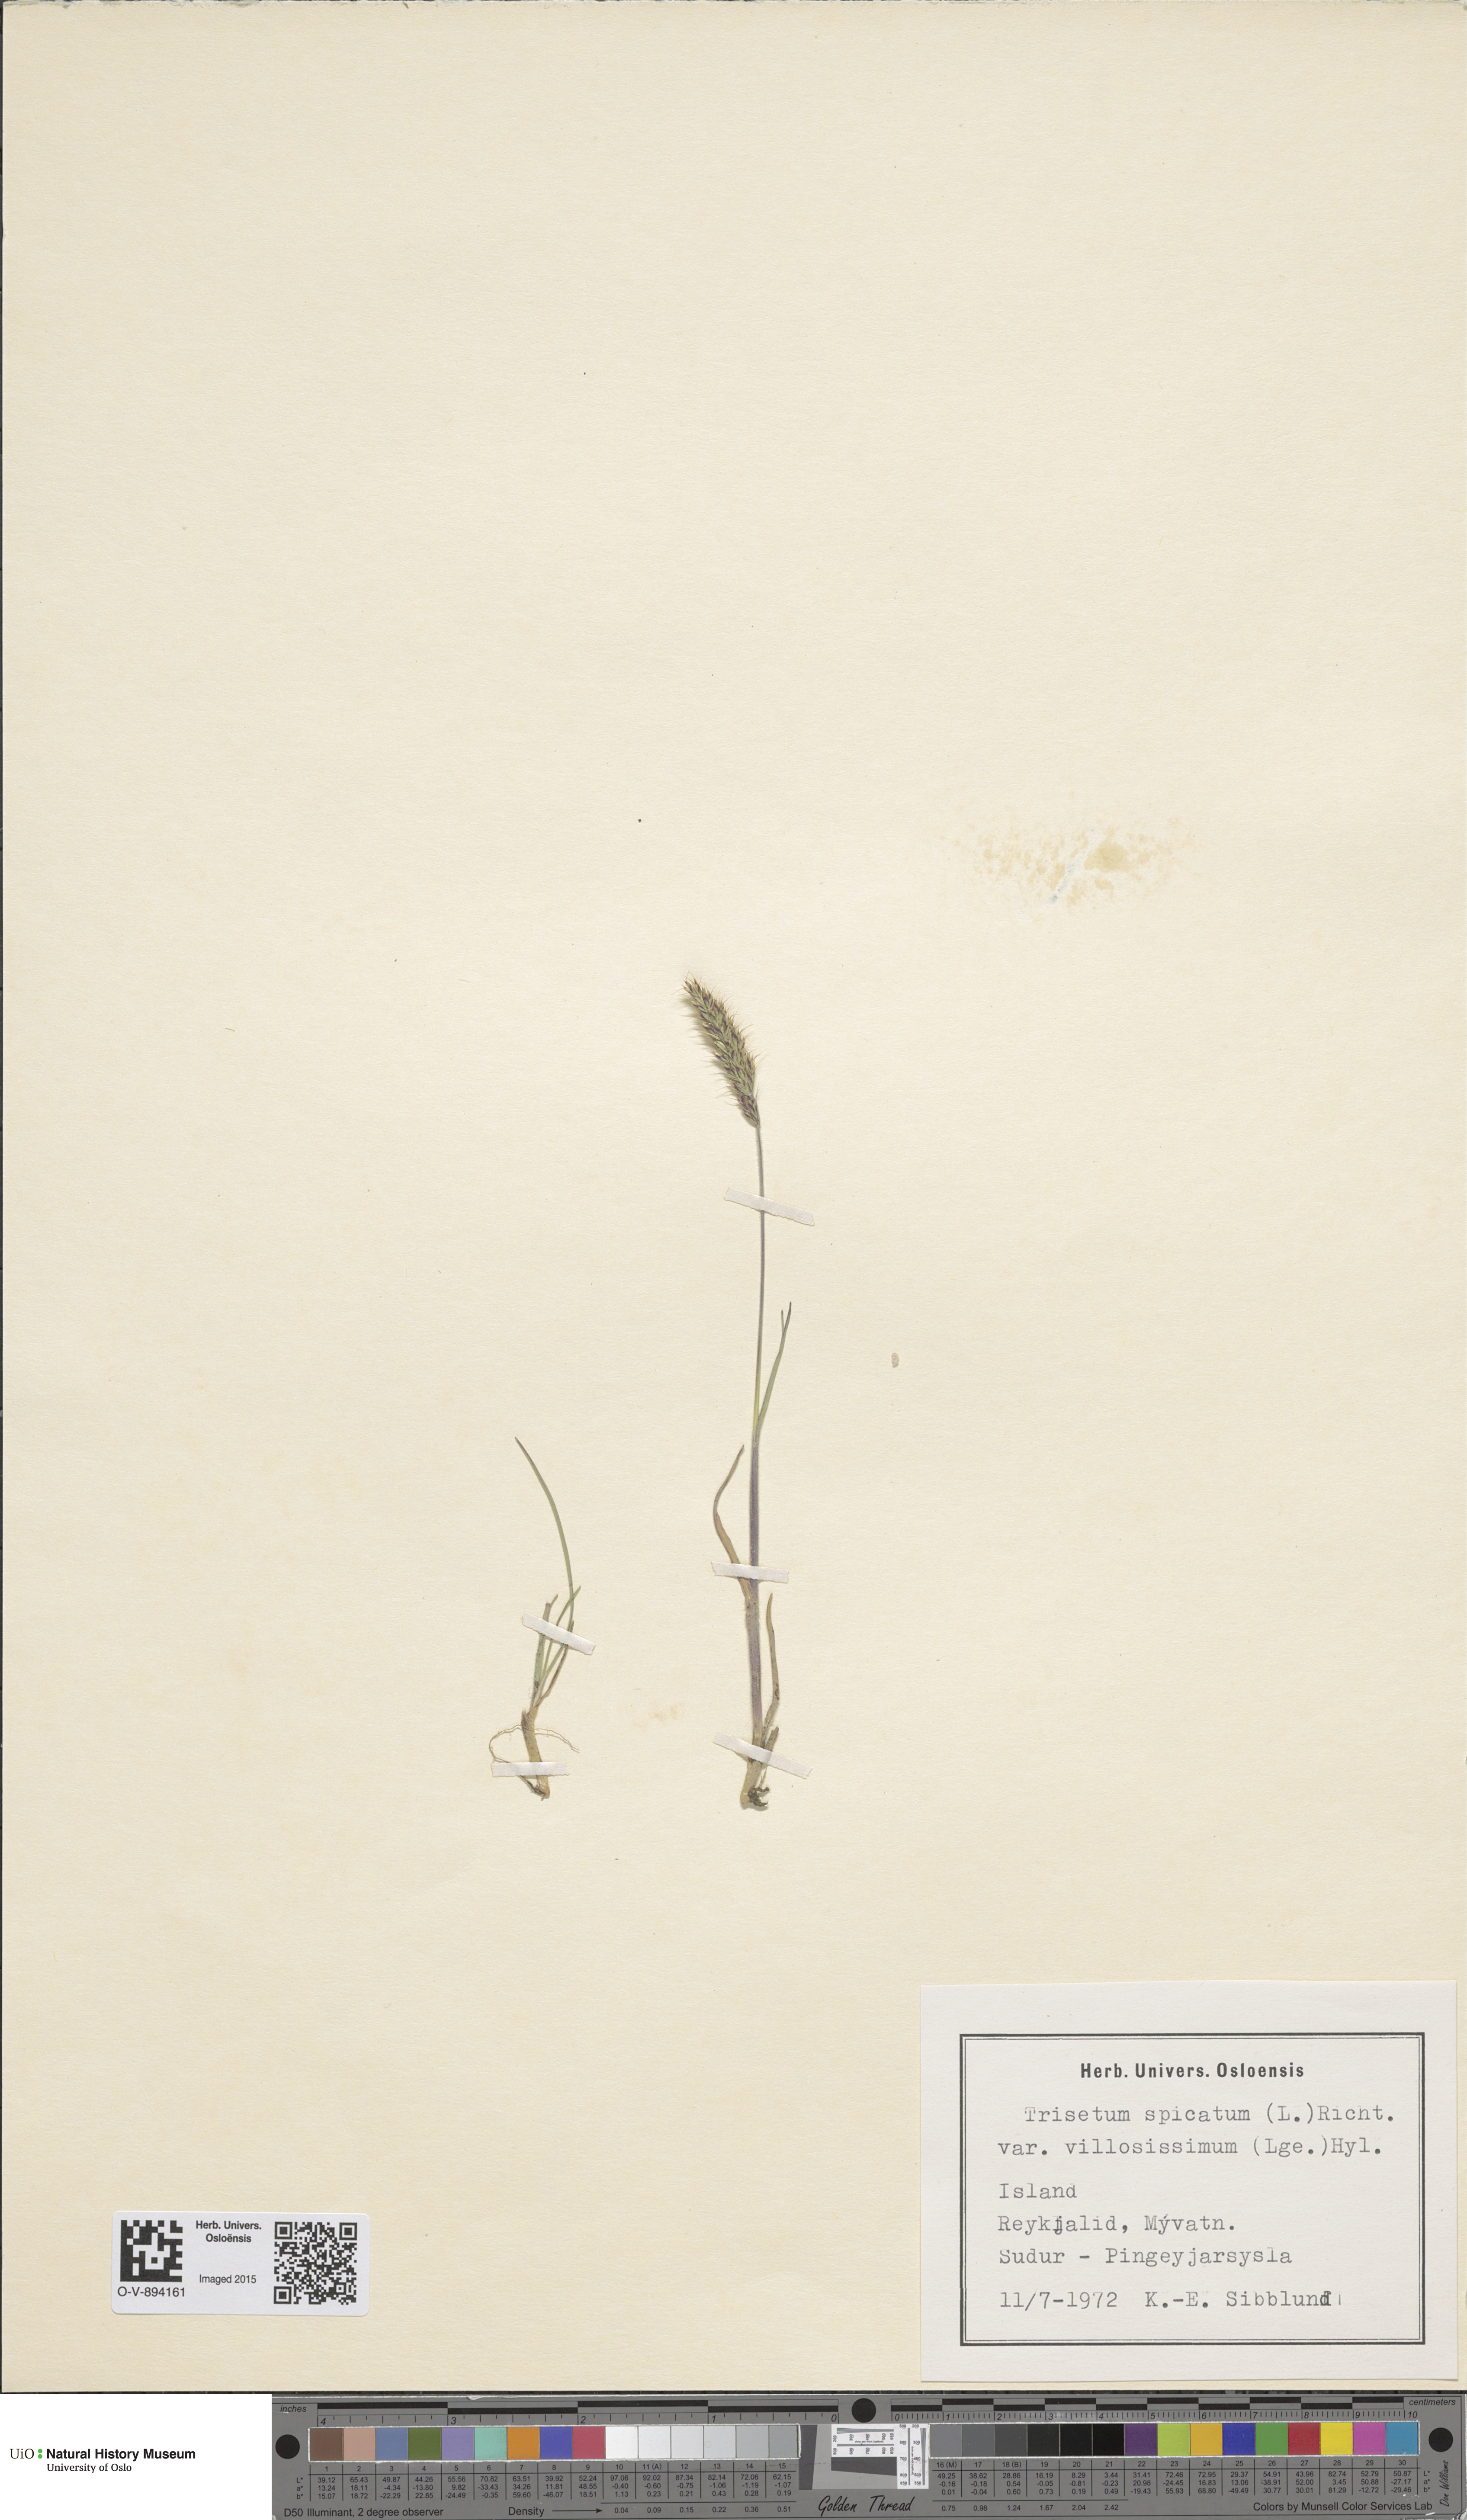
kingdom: Plantae
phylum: Tracheophyta
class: Liliopsida
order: Poales
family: Poaceae
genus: Koeleria
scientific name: Koeleria spicata
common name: Mountain trisetum
